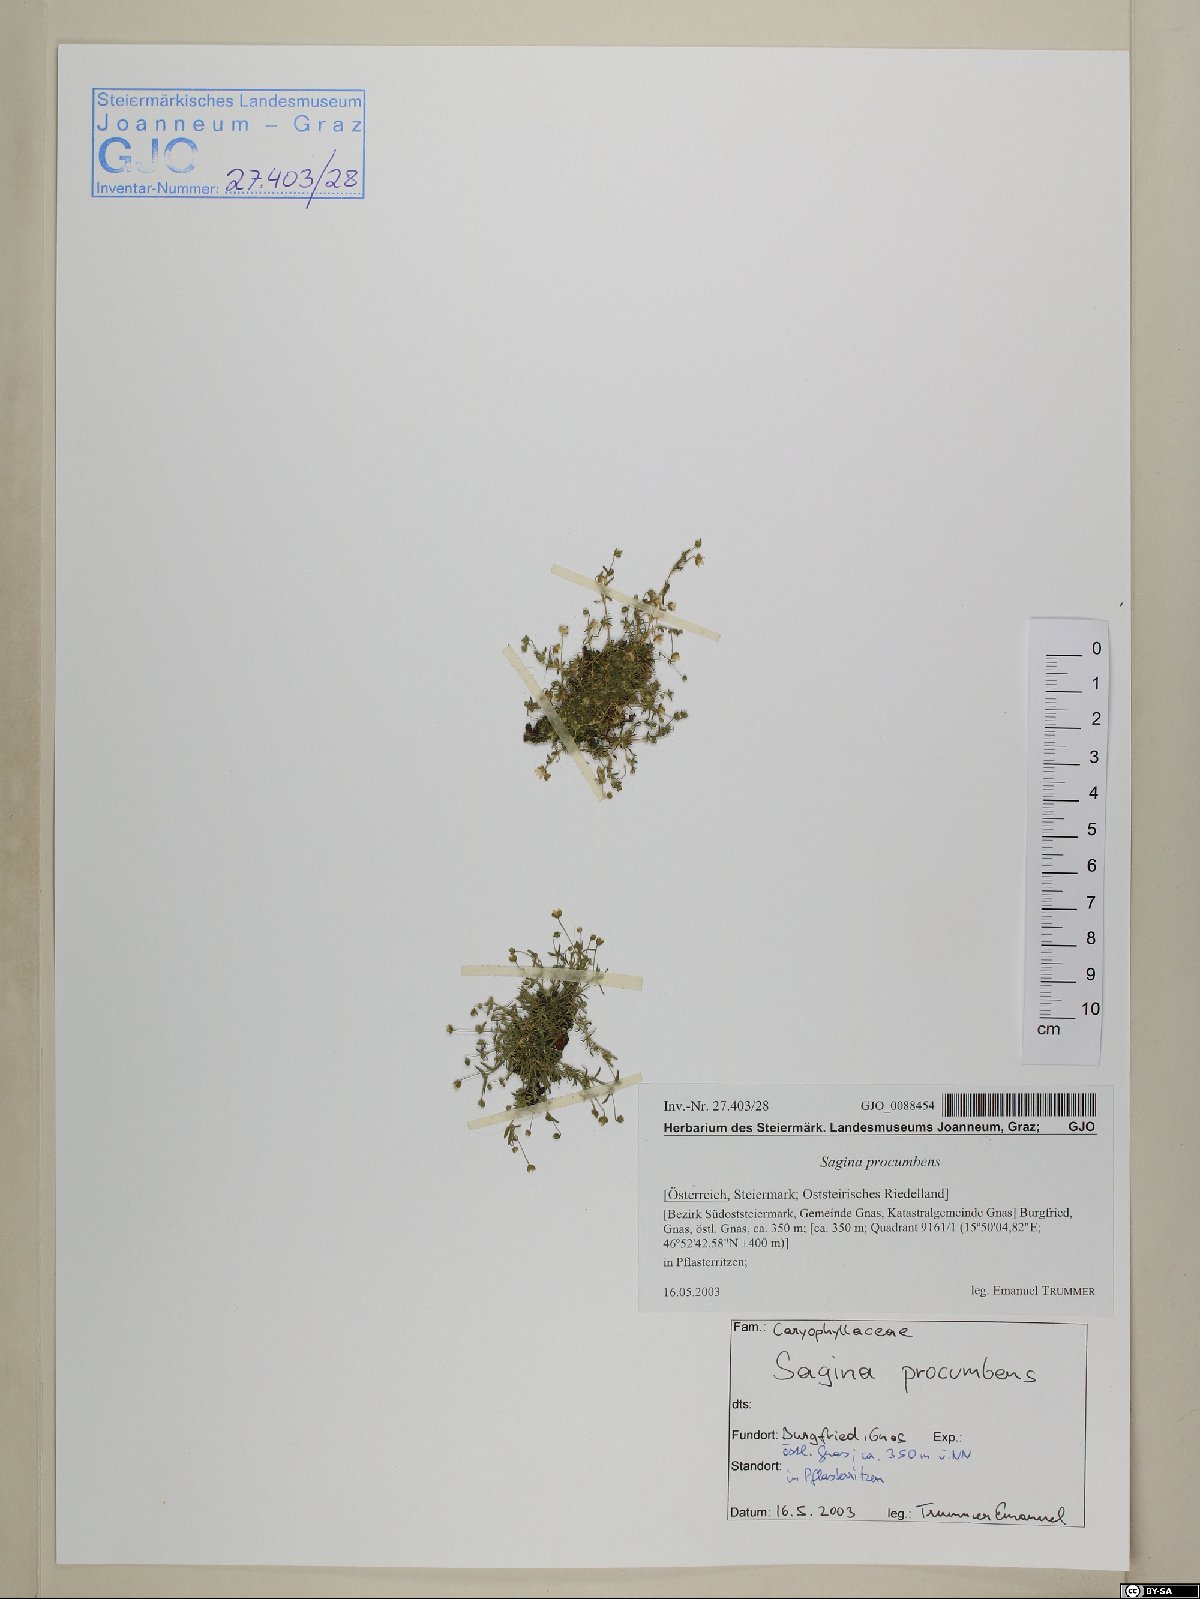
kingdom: Plantae
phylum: Tracheophyta
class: Magnoliopsida
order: Caryophyllales
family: Caryophyllaceae
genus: Sagina
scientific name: Sagina procumbens
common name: Procumbent pearlwort
